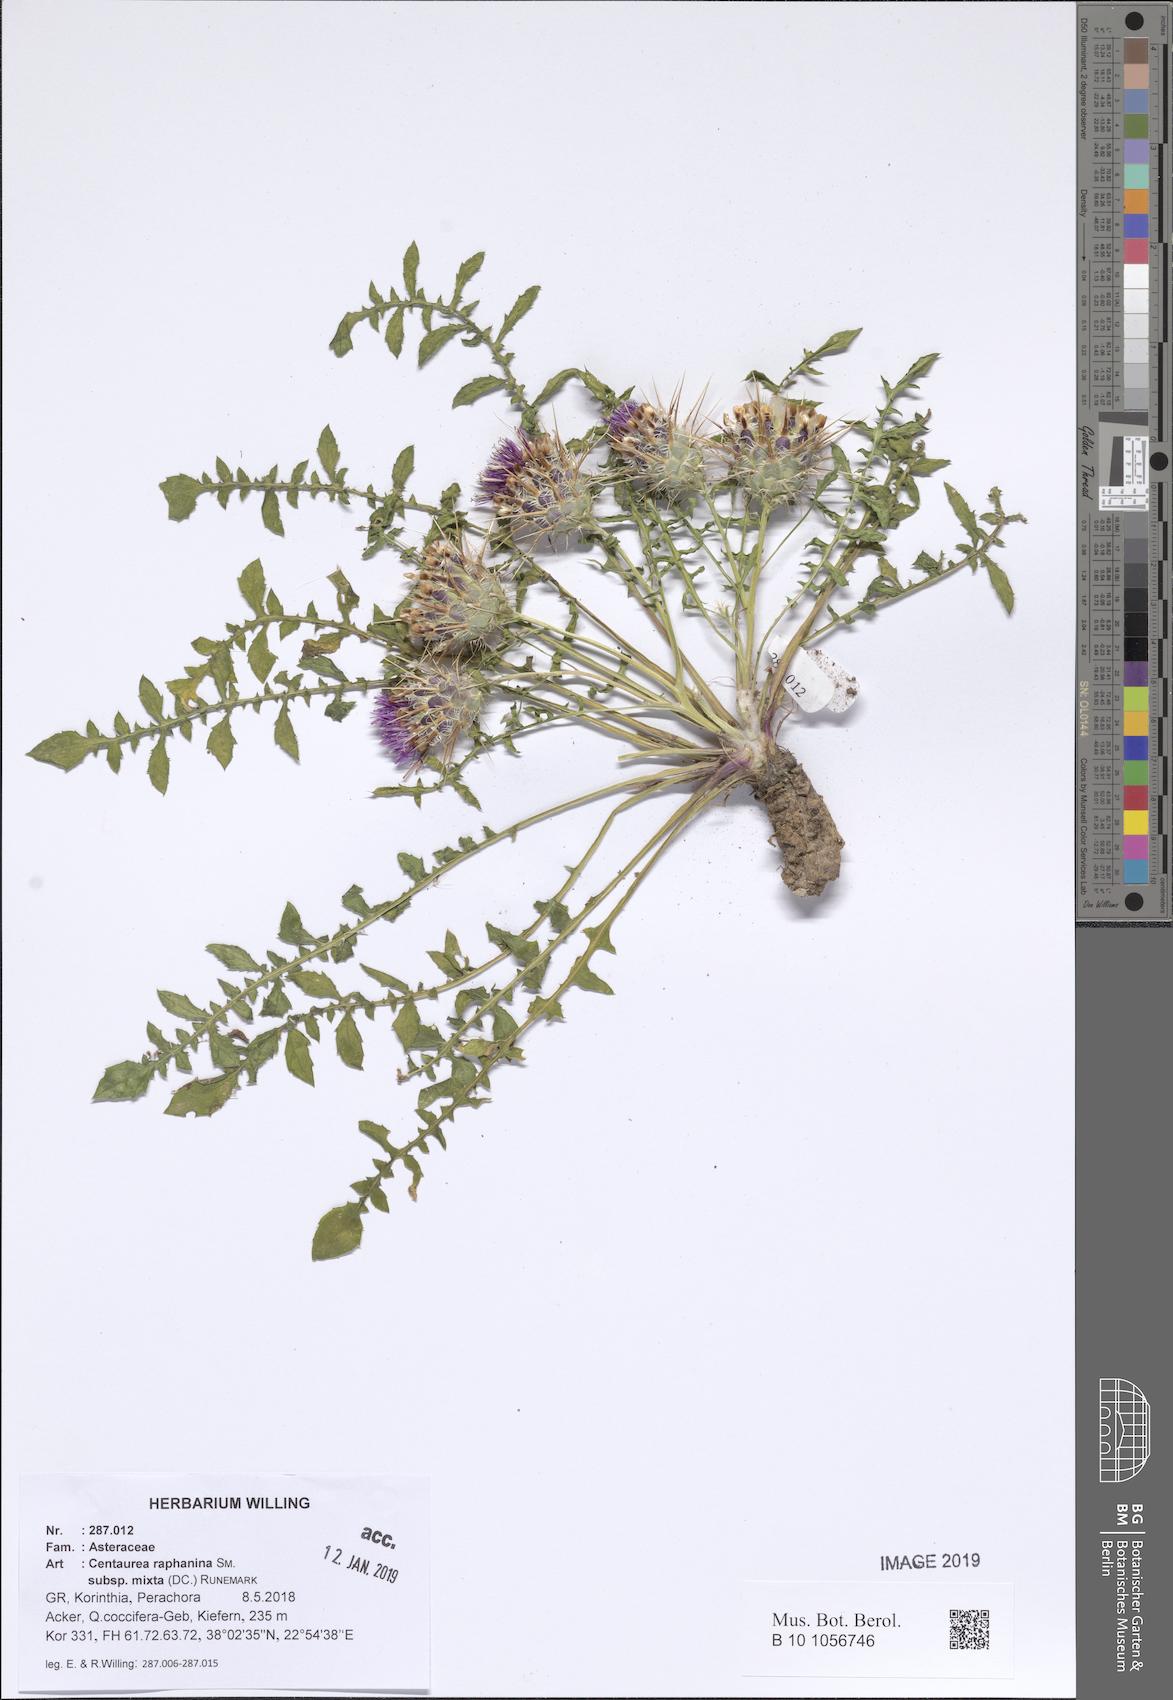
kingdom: Plantae
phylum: Tracheophyta
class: Magnoliopsida
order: Asterales
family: Asteraceae
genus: Centaurea
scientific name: Centaurea raphanina
